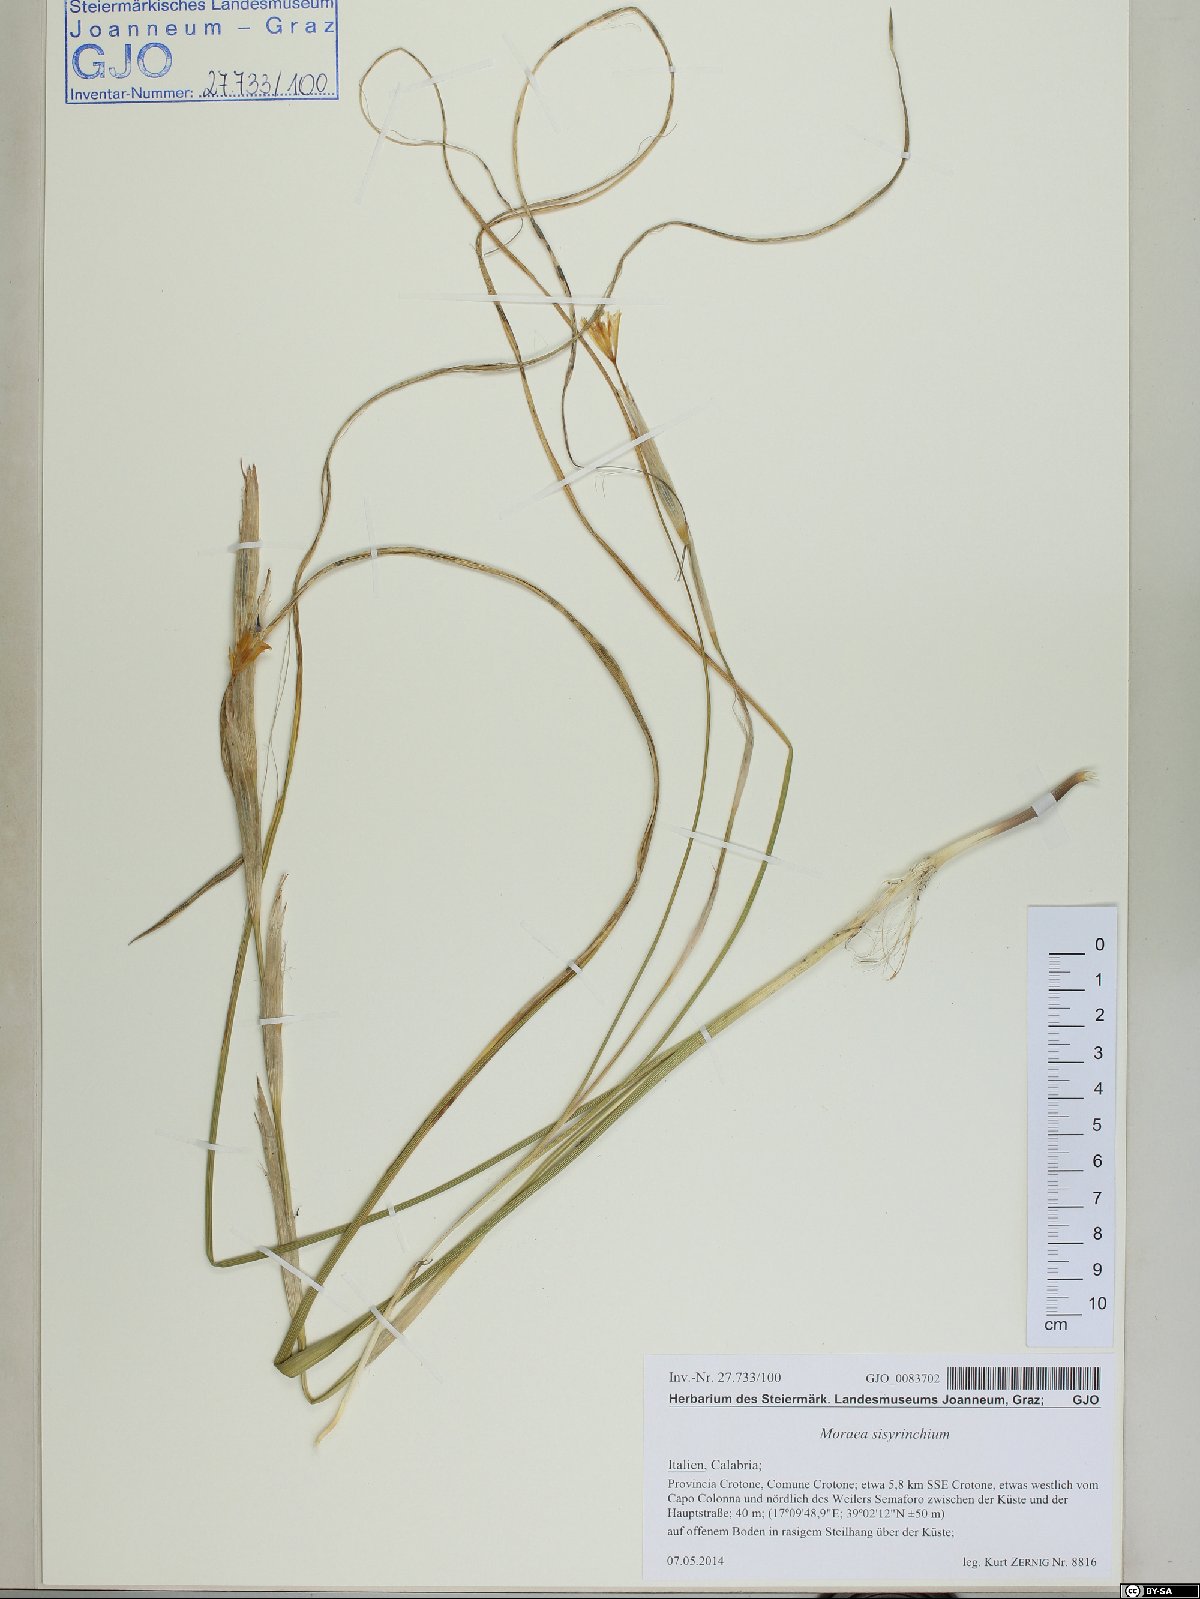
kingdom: Plantae
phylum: Tracheophyta
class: Liliopsida
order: Asparagales
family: Iridaceae
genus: Moraea
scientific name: Moraea sisyrinchium
